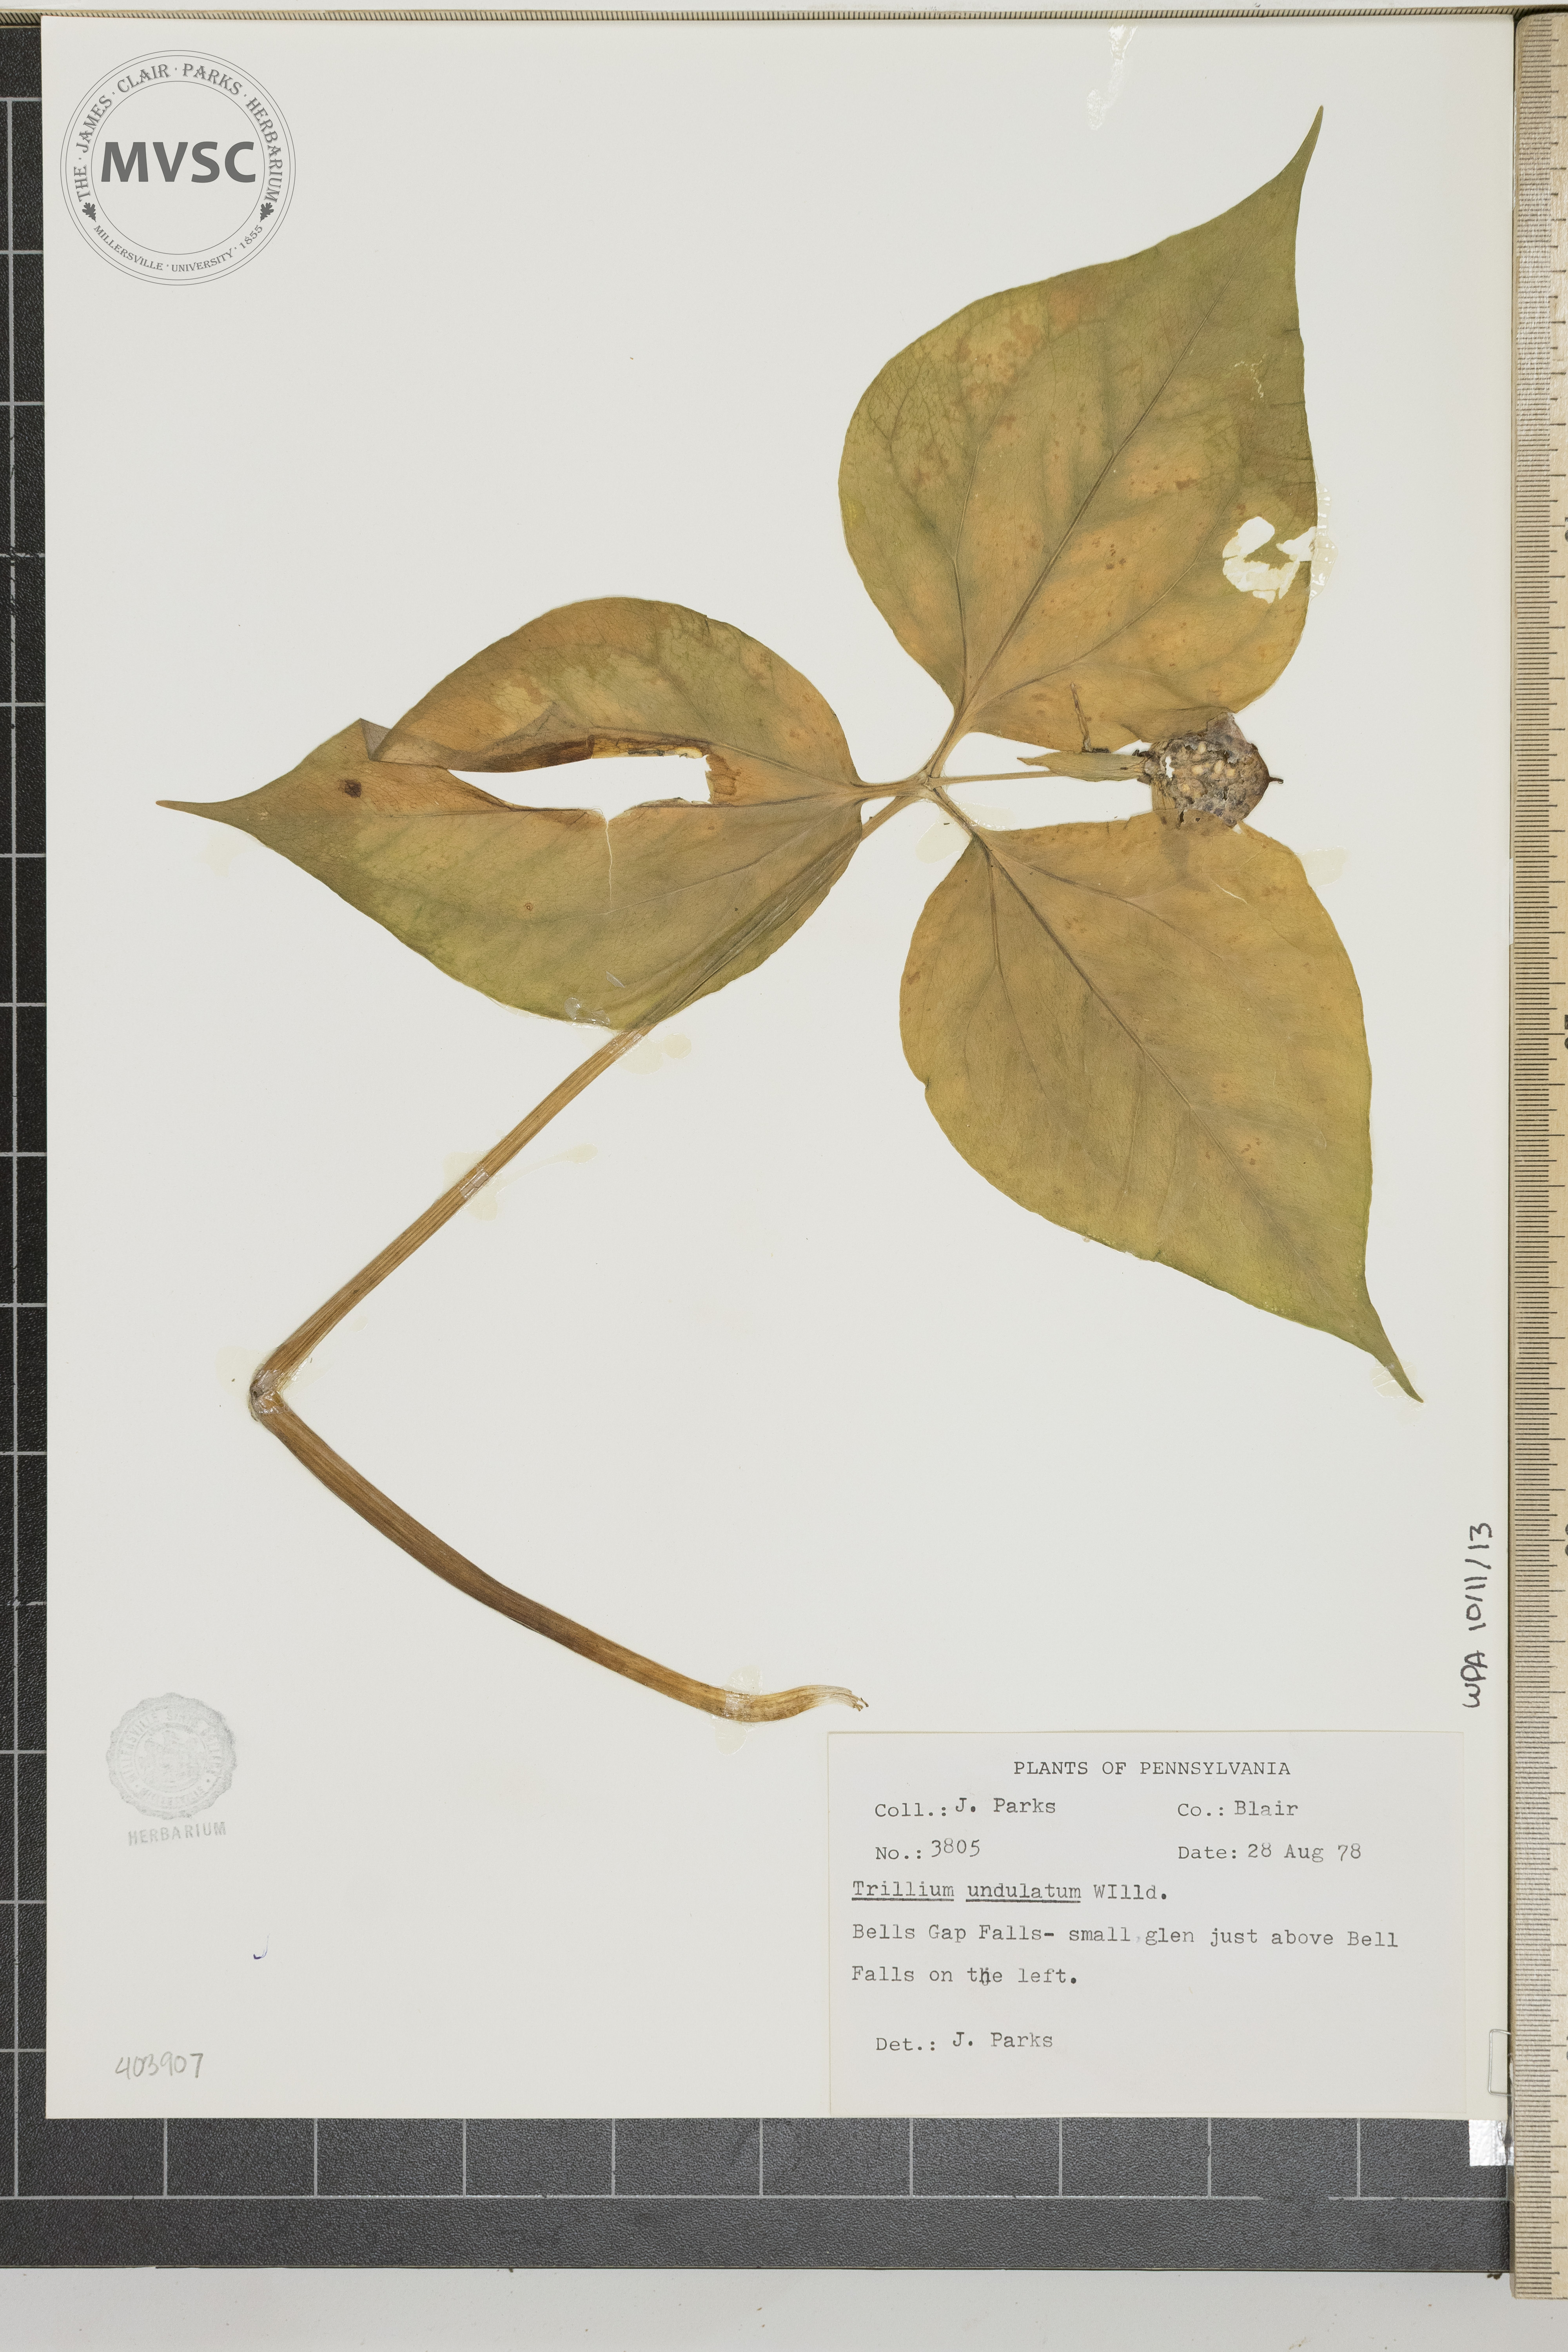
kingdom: Plantae
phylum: Tracheophyta
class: Liliopsida
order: Liliales
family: Melanthiaceae
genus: Trillium
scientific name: Trillium undulatum
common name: Paint trillium
